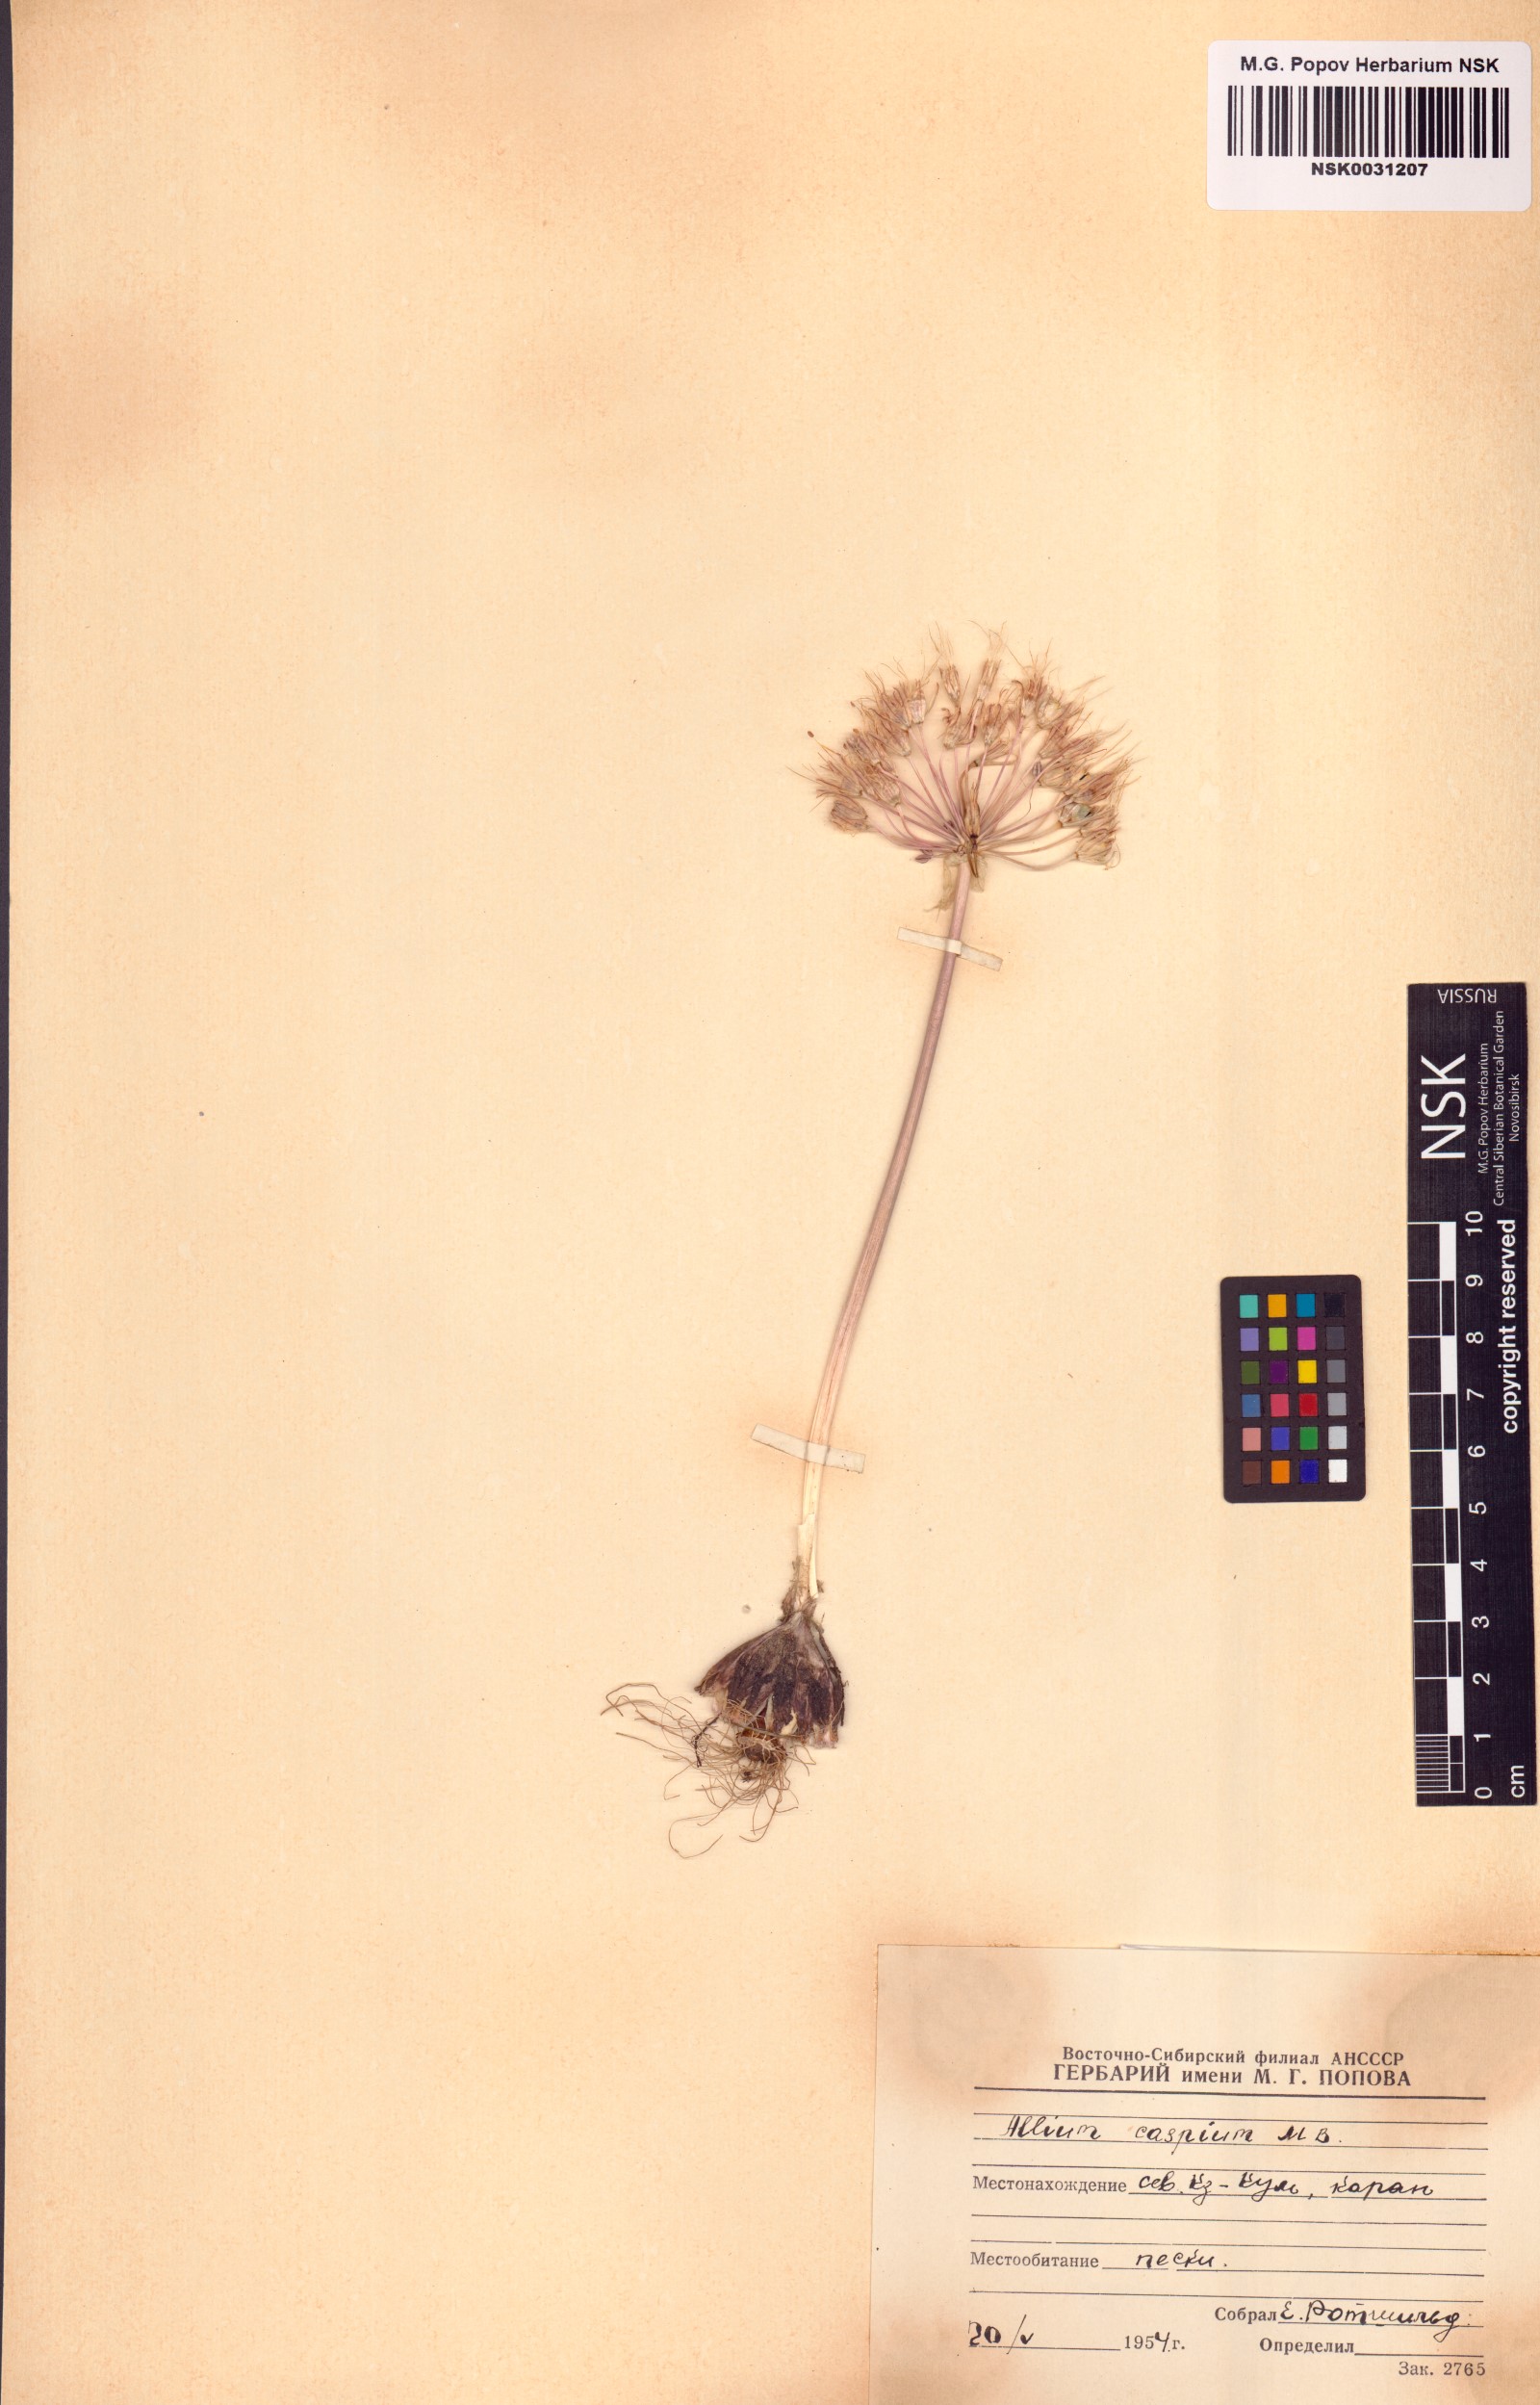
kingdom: Plantae
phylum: Tracheophyta
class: Liliopsida
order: Asparagales
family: Amaryllidaceae
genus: Allium
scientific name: Allium caspium
